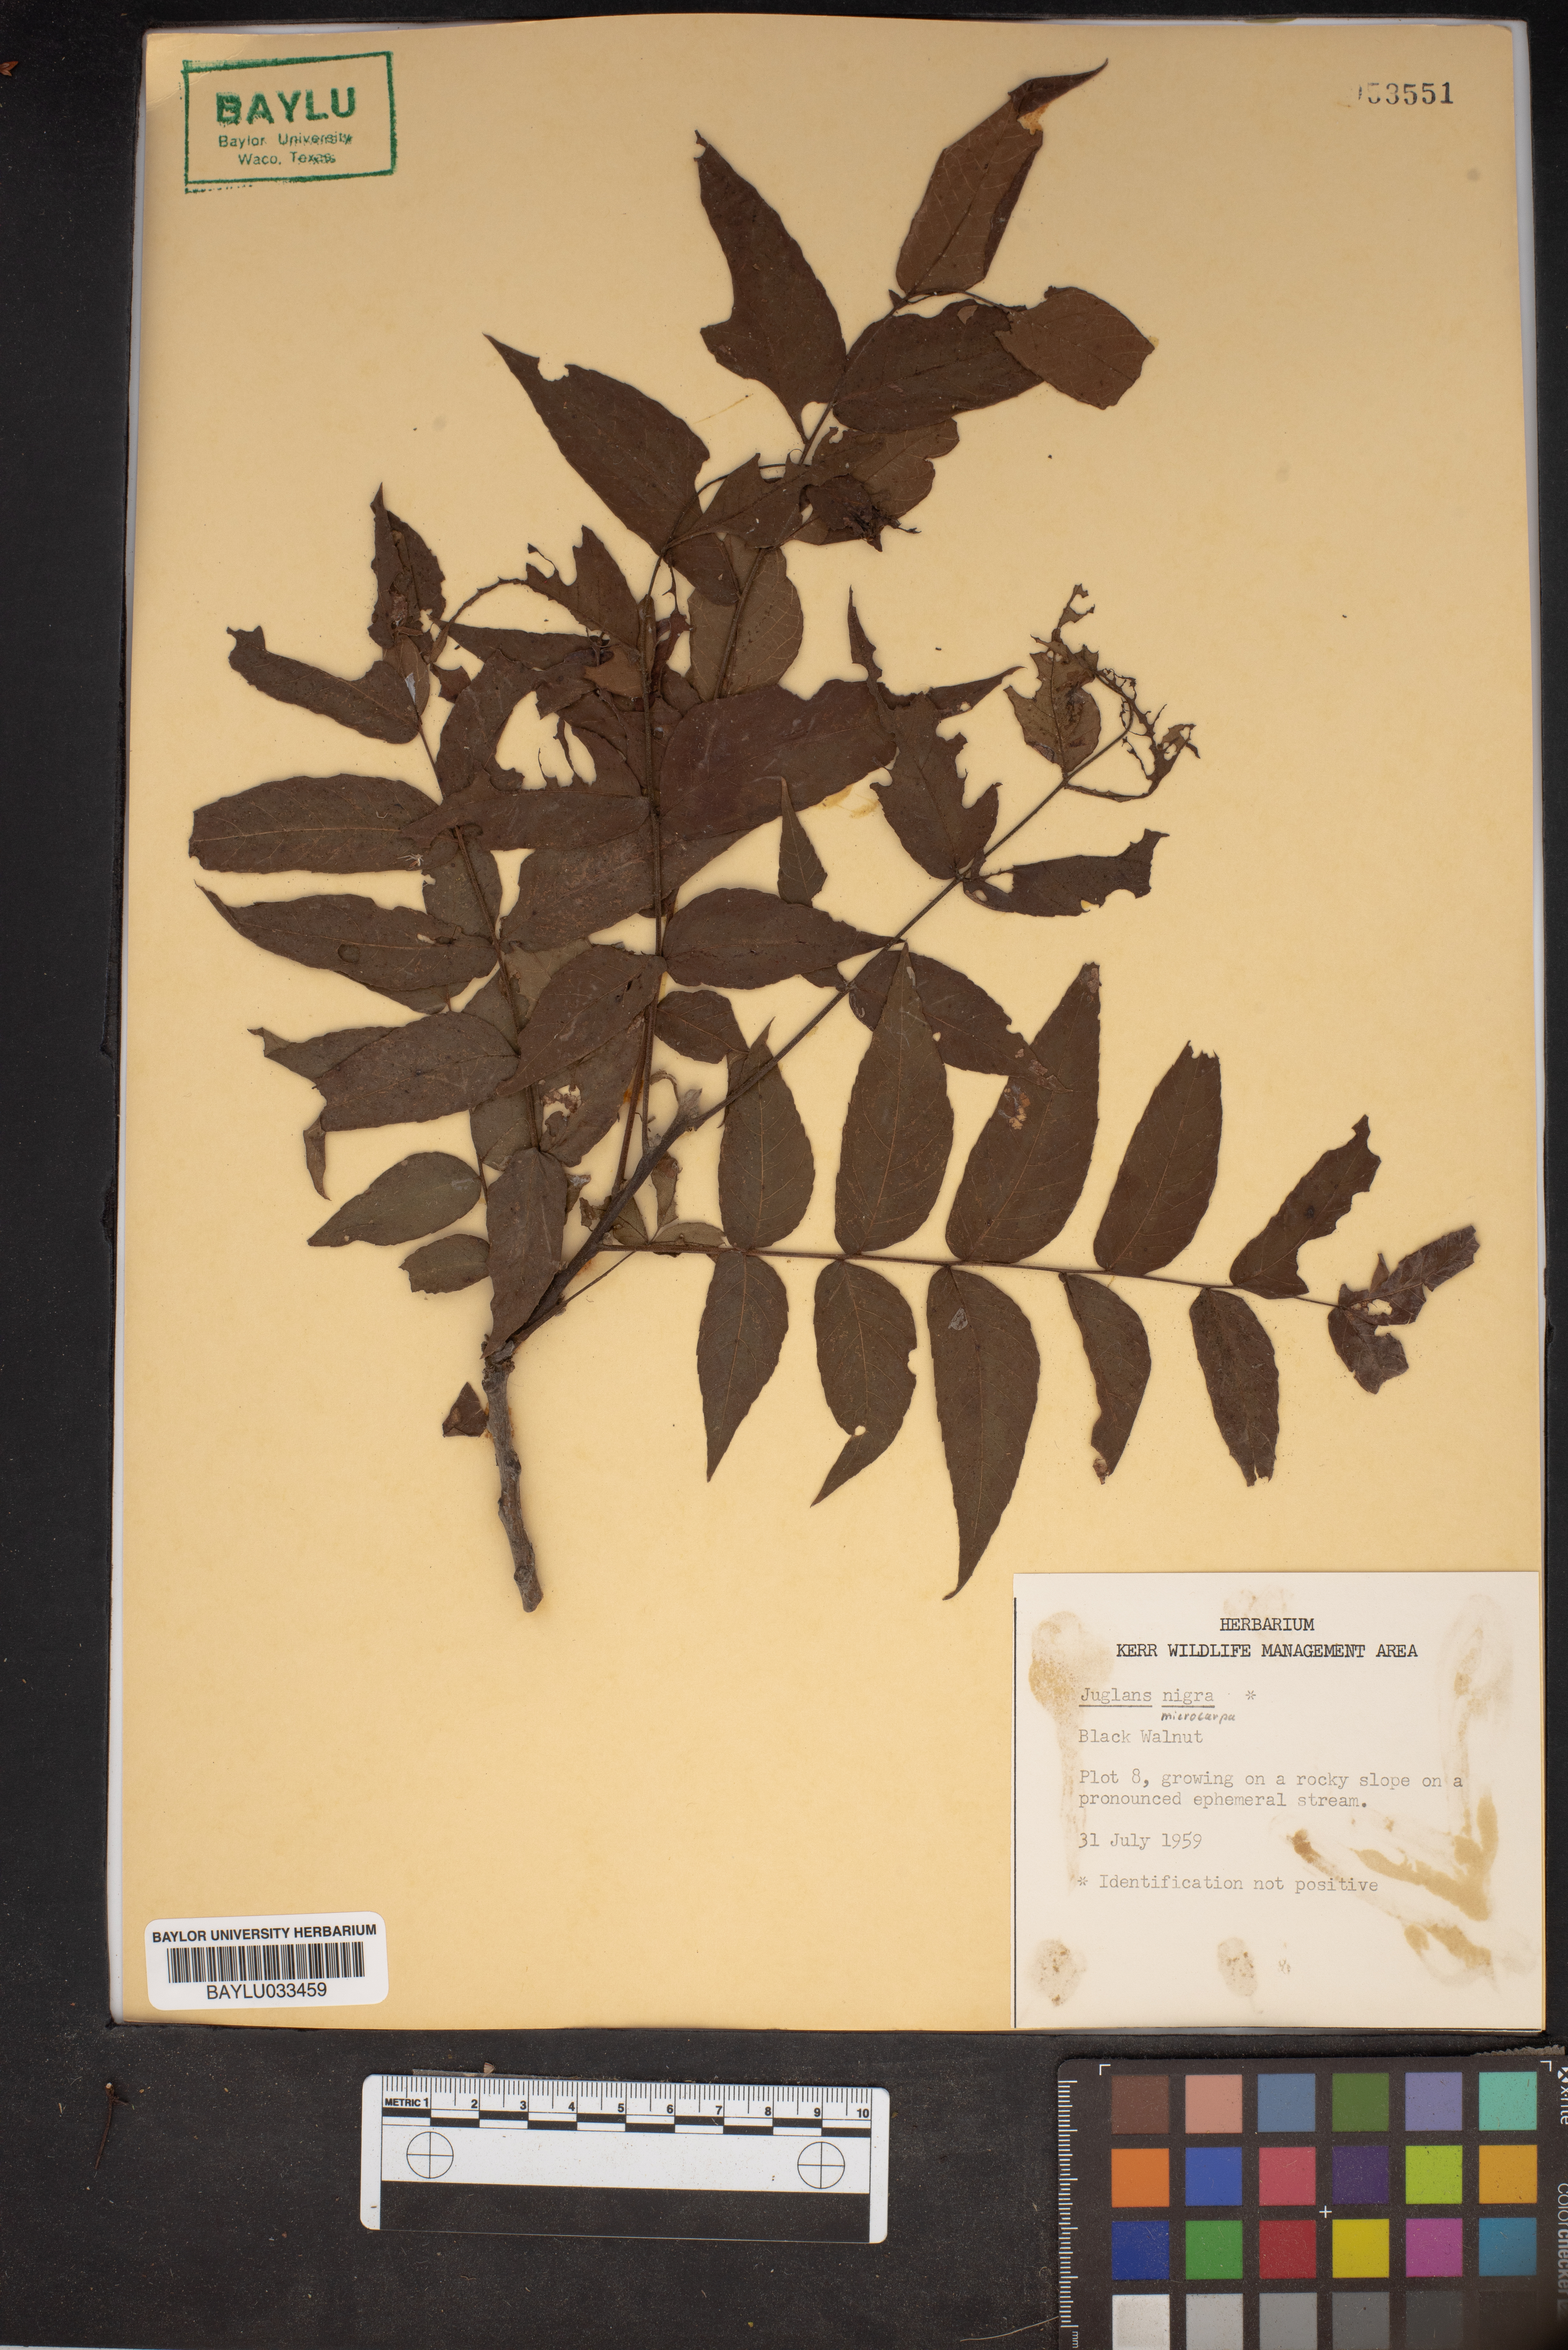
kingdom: Plantae
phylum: Tracheophyta
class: Magnoliopsida
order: Fagales
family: Juglandaceae
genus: Juglans
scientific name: Juglans nigra
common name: Black walnut
